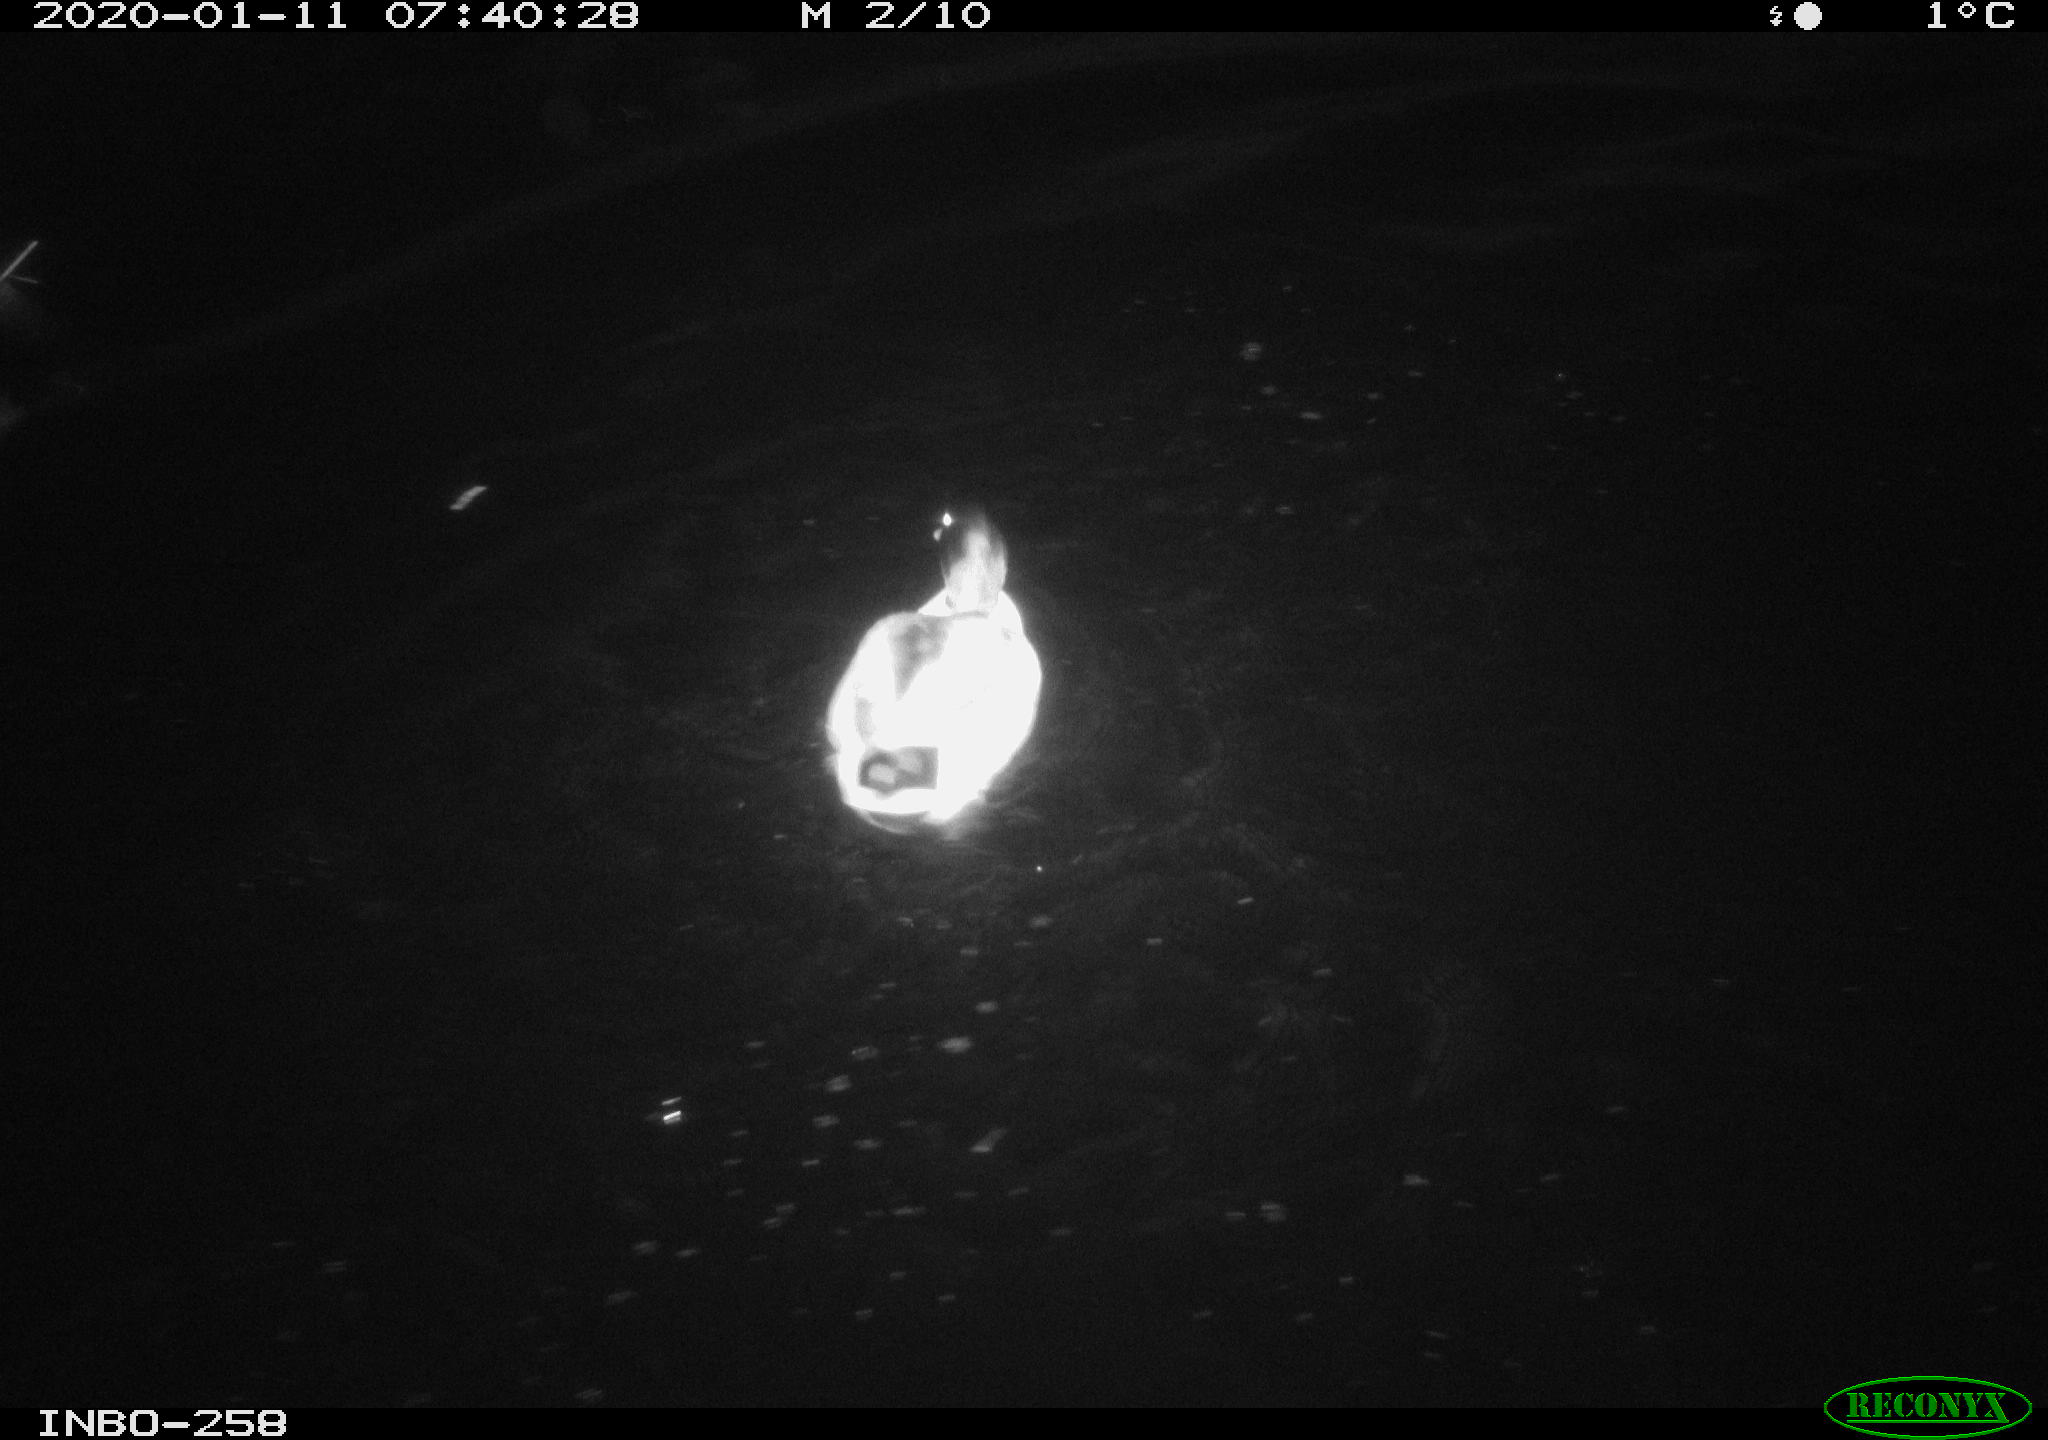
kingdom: Animalia
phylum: Chordata
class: Aves
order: Anseriformes
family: Anatidae
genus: Anas
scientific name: Anas platyrhynchos
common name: Mallard
